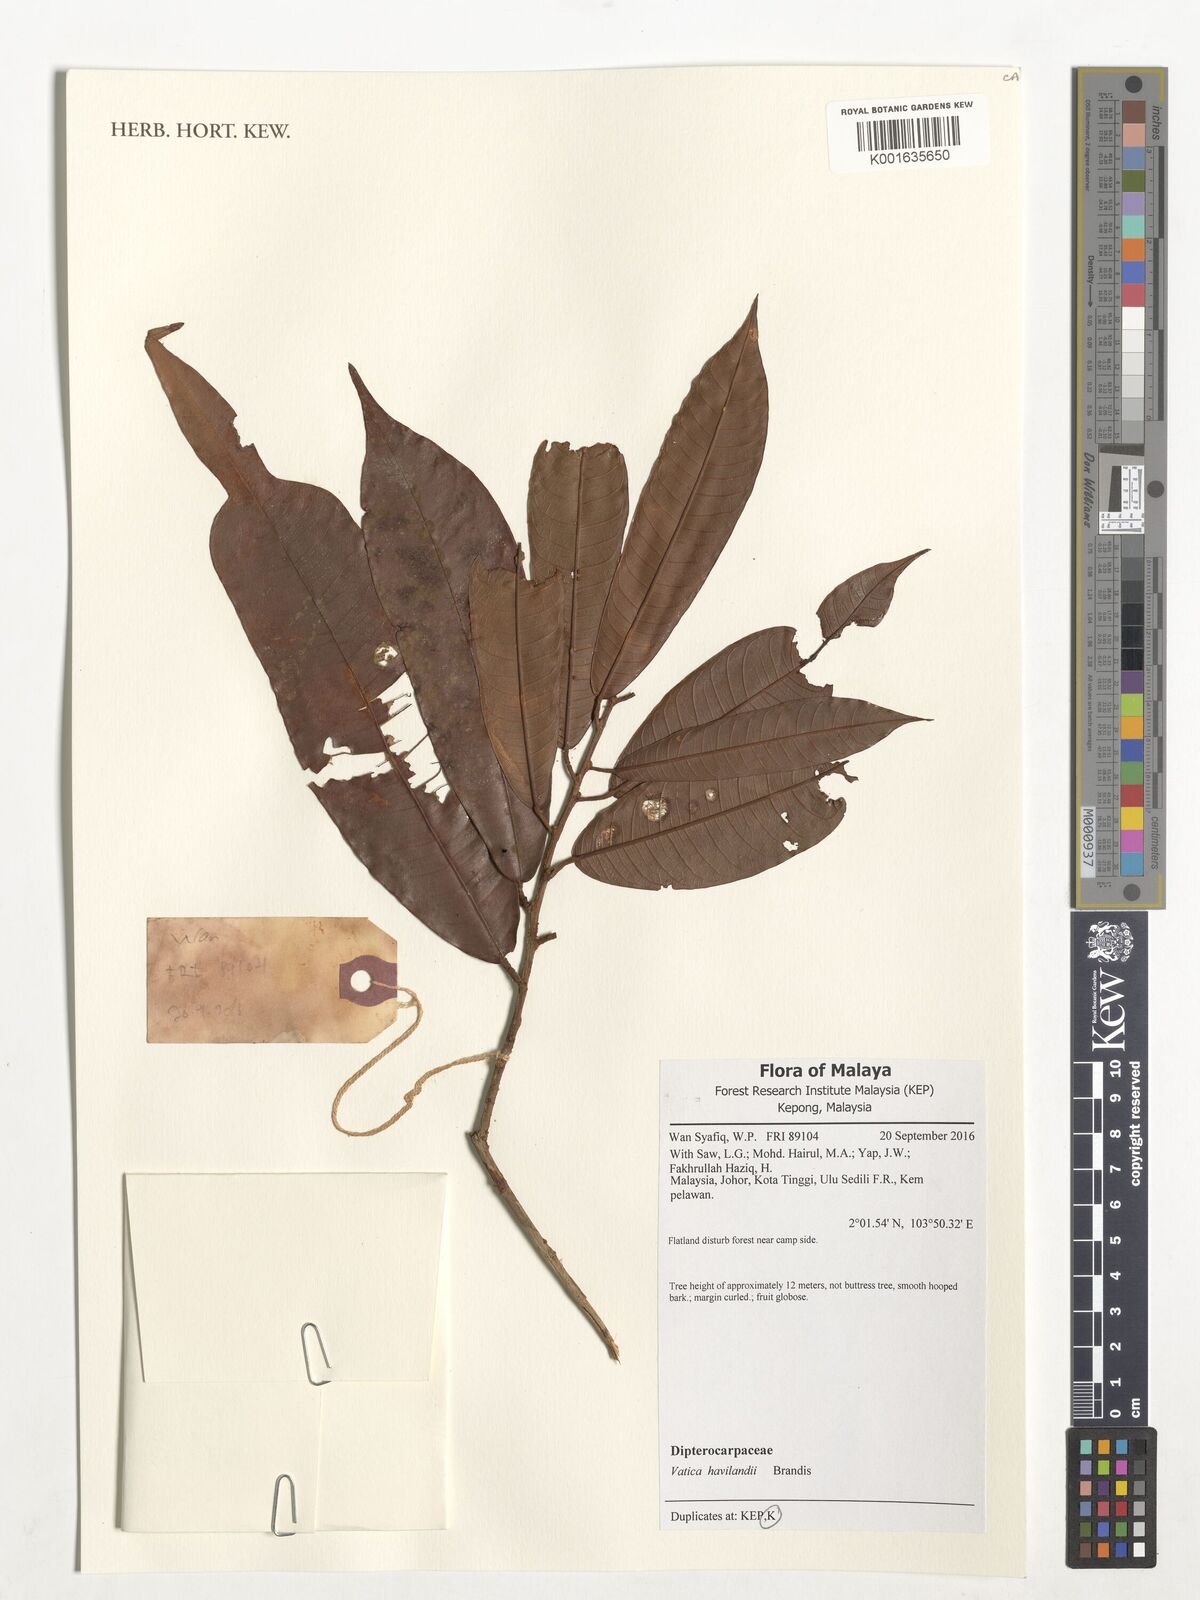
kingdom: Plantae
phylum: Tracheophyta
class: Magnoliopsida
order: Malvales
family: Dipterocarpaceae
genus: Vatica
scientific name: Vatica havilandii
